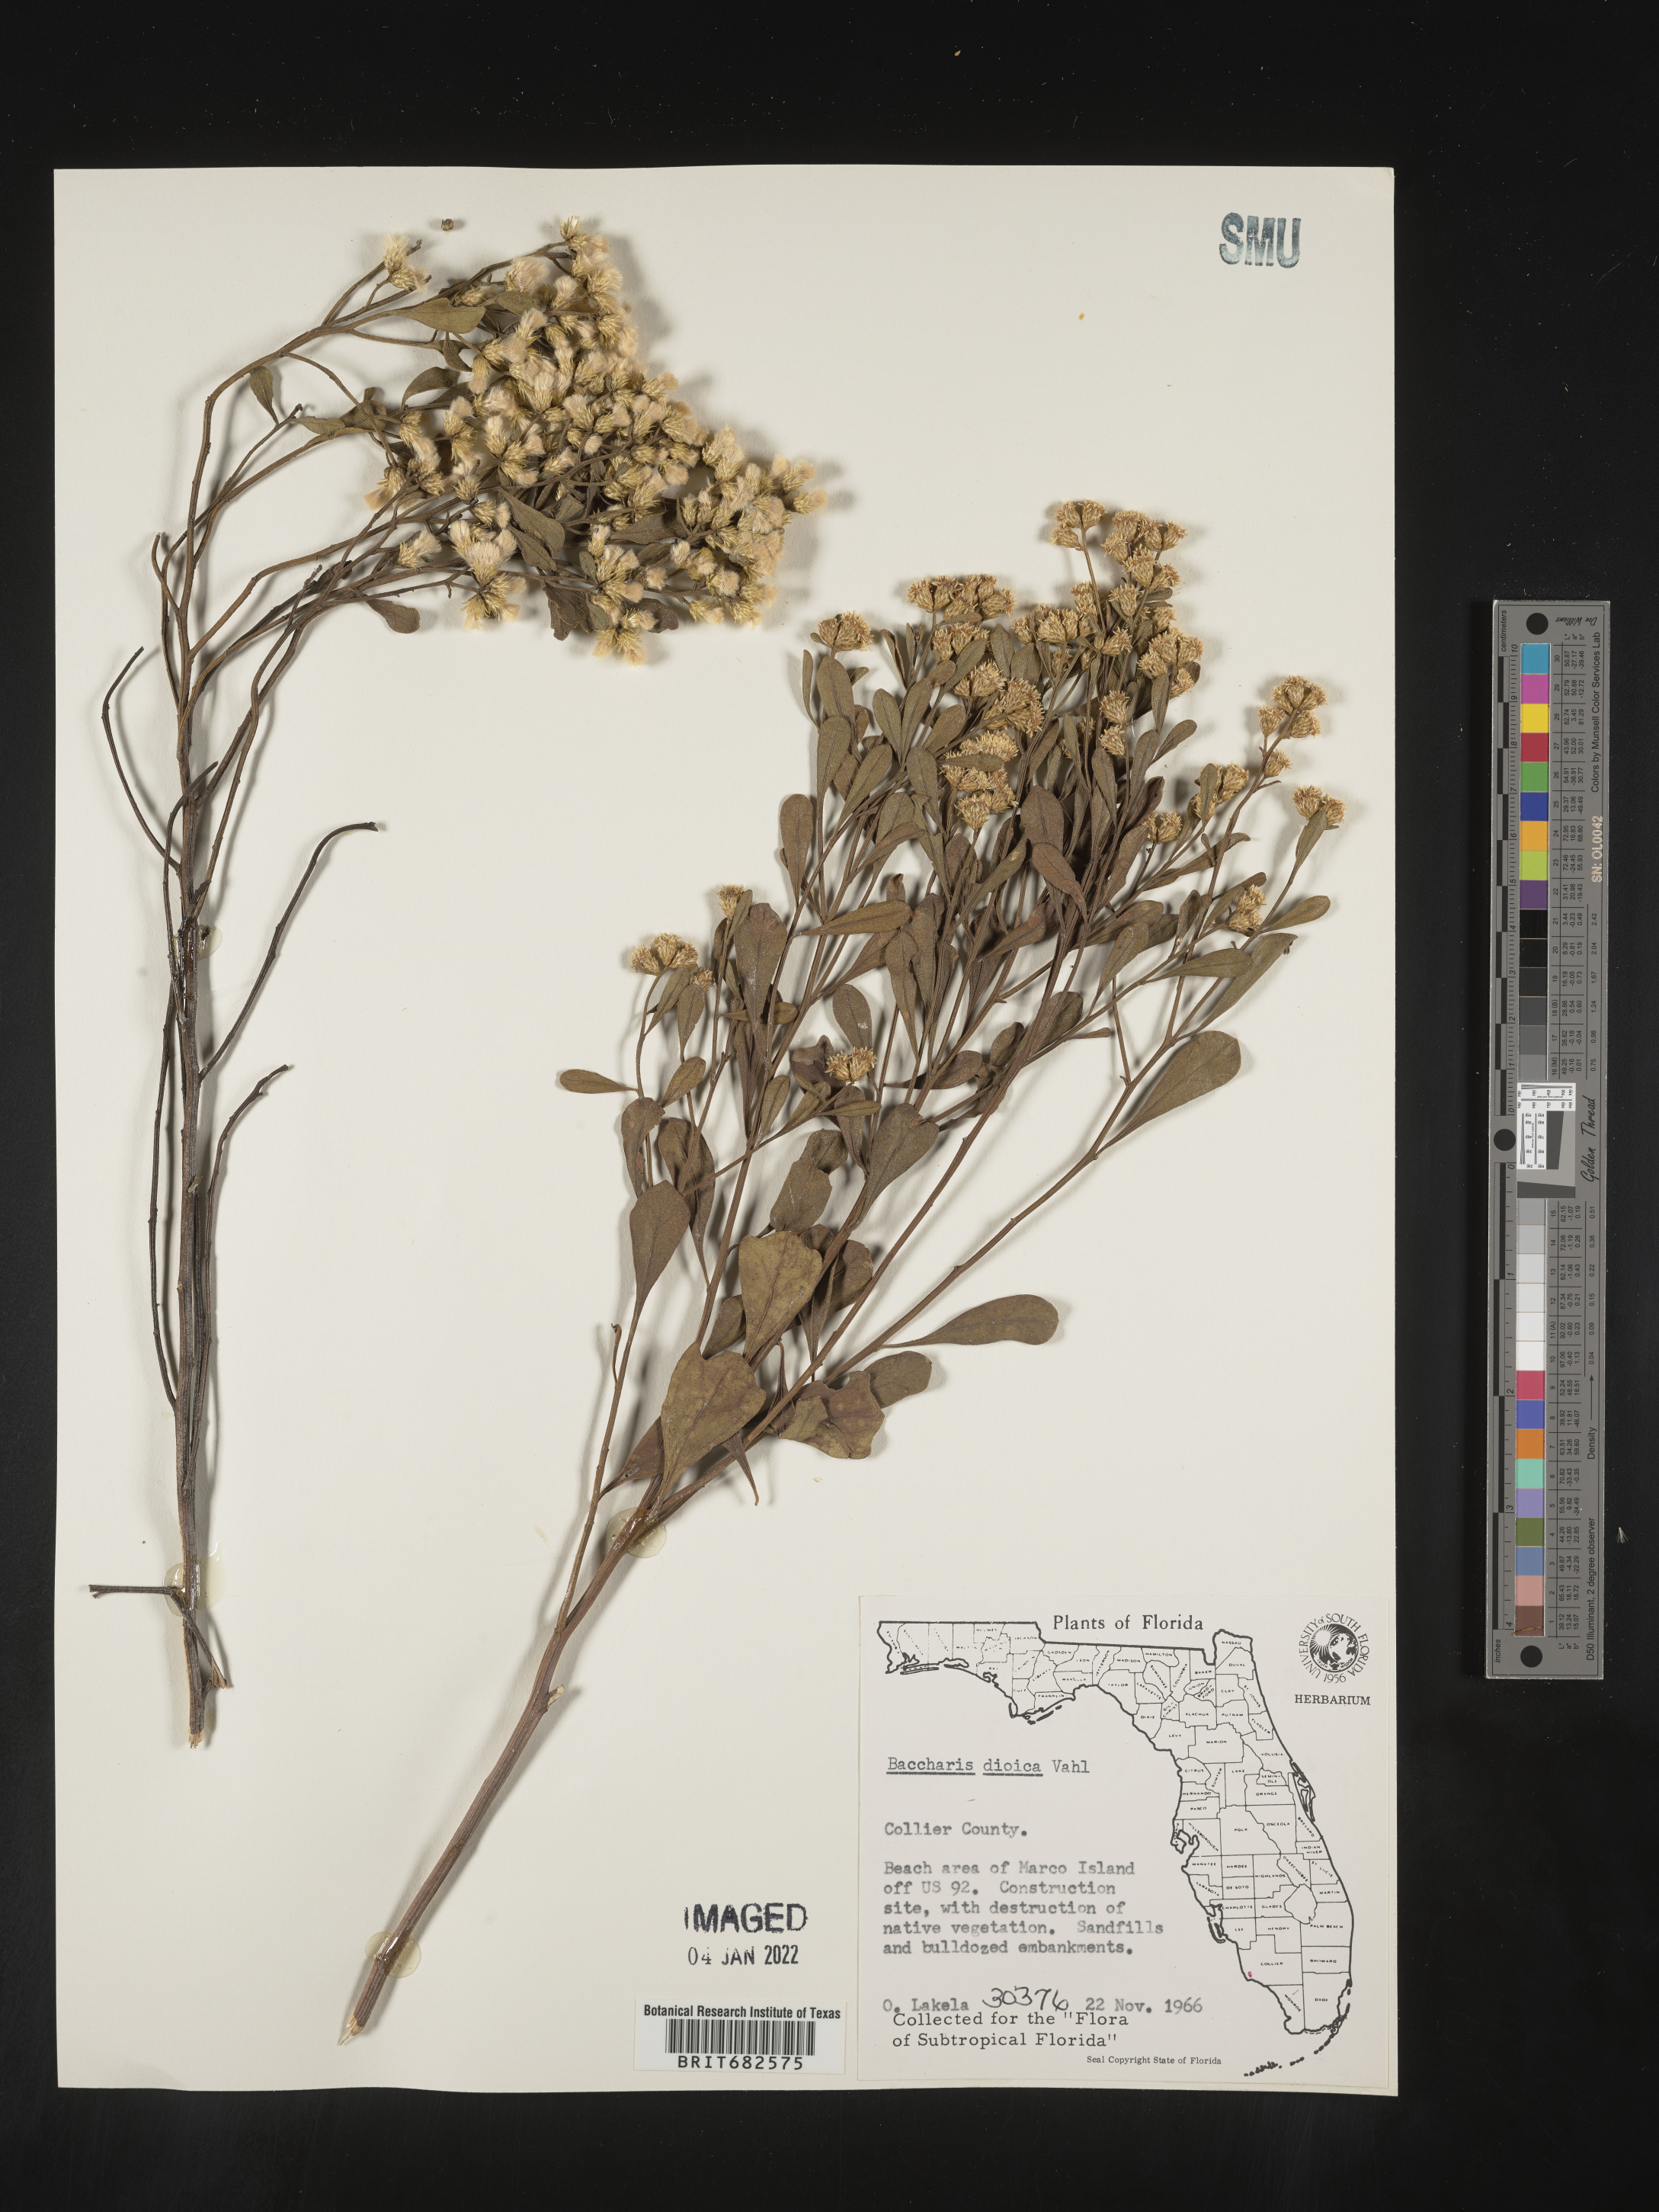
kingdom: Plantae
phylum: Tracheophyta
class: Magnoliopsida
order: Asterales
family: Asteraceae
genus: Baccharis
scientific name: Baccharis dioica
